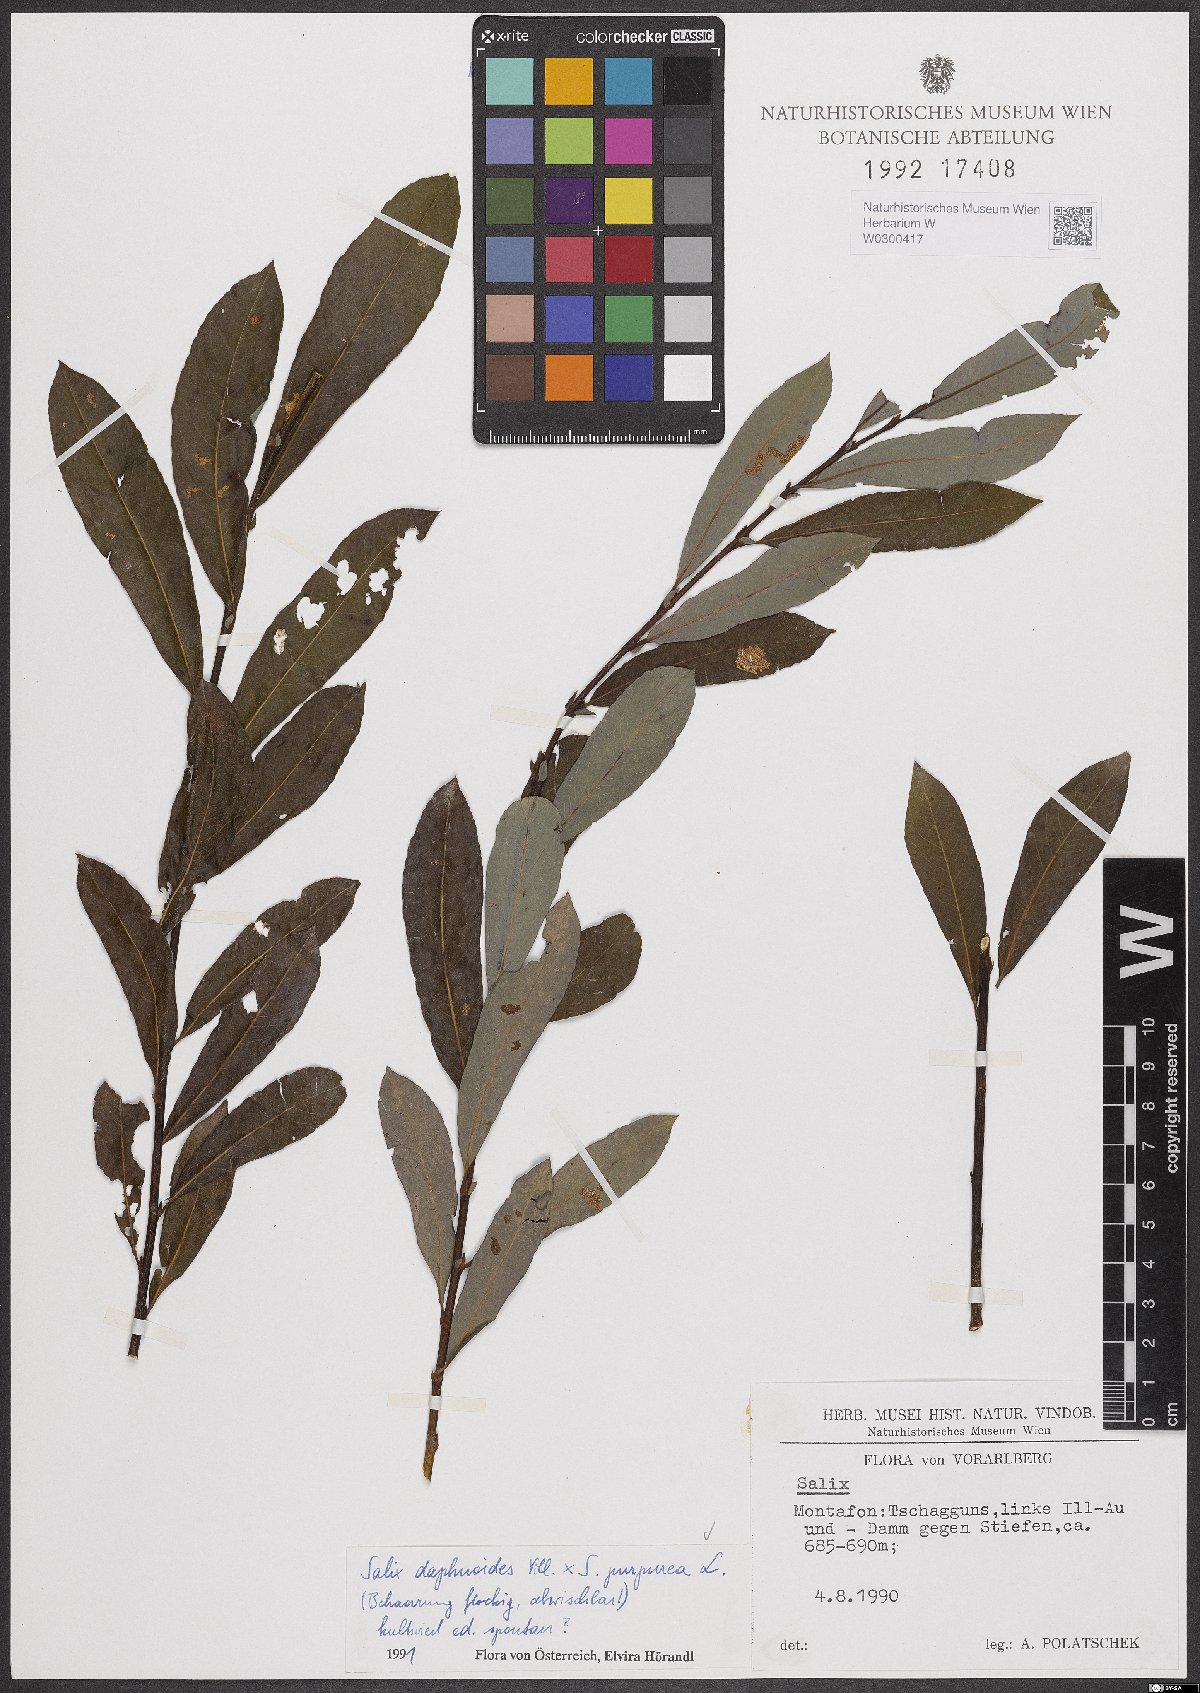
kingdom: Plantae
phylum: Tracheophyta
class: Magnoliopsida
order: Malpighiales
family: Salicaceae
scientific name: Salicaceae
